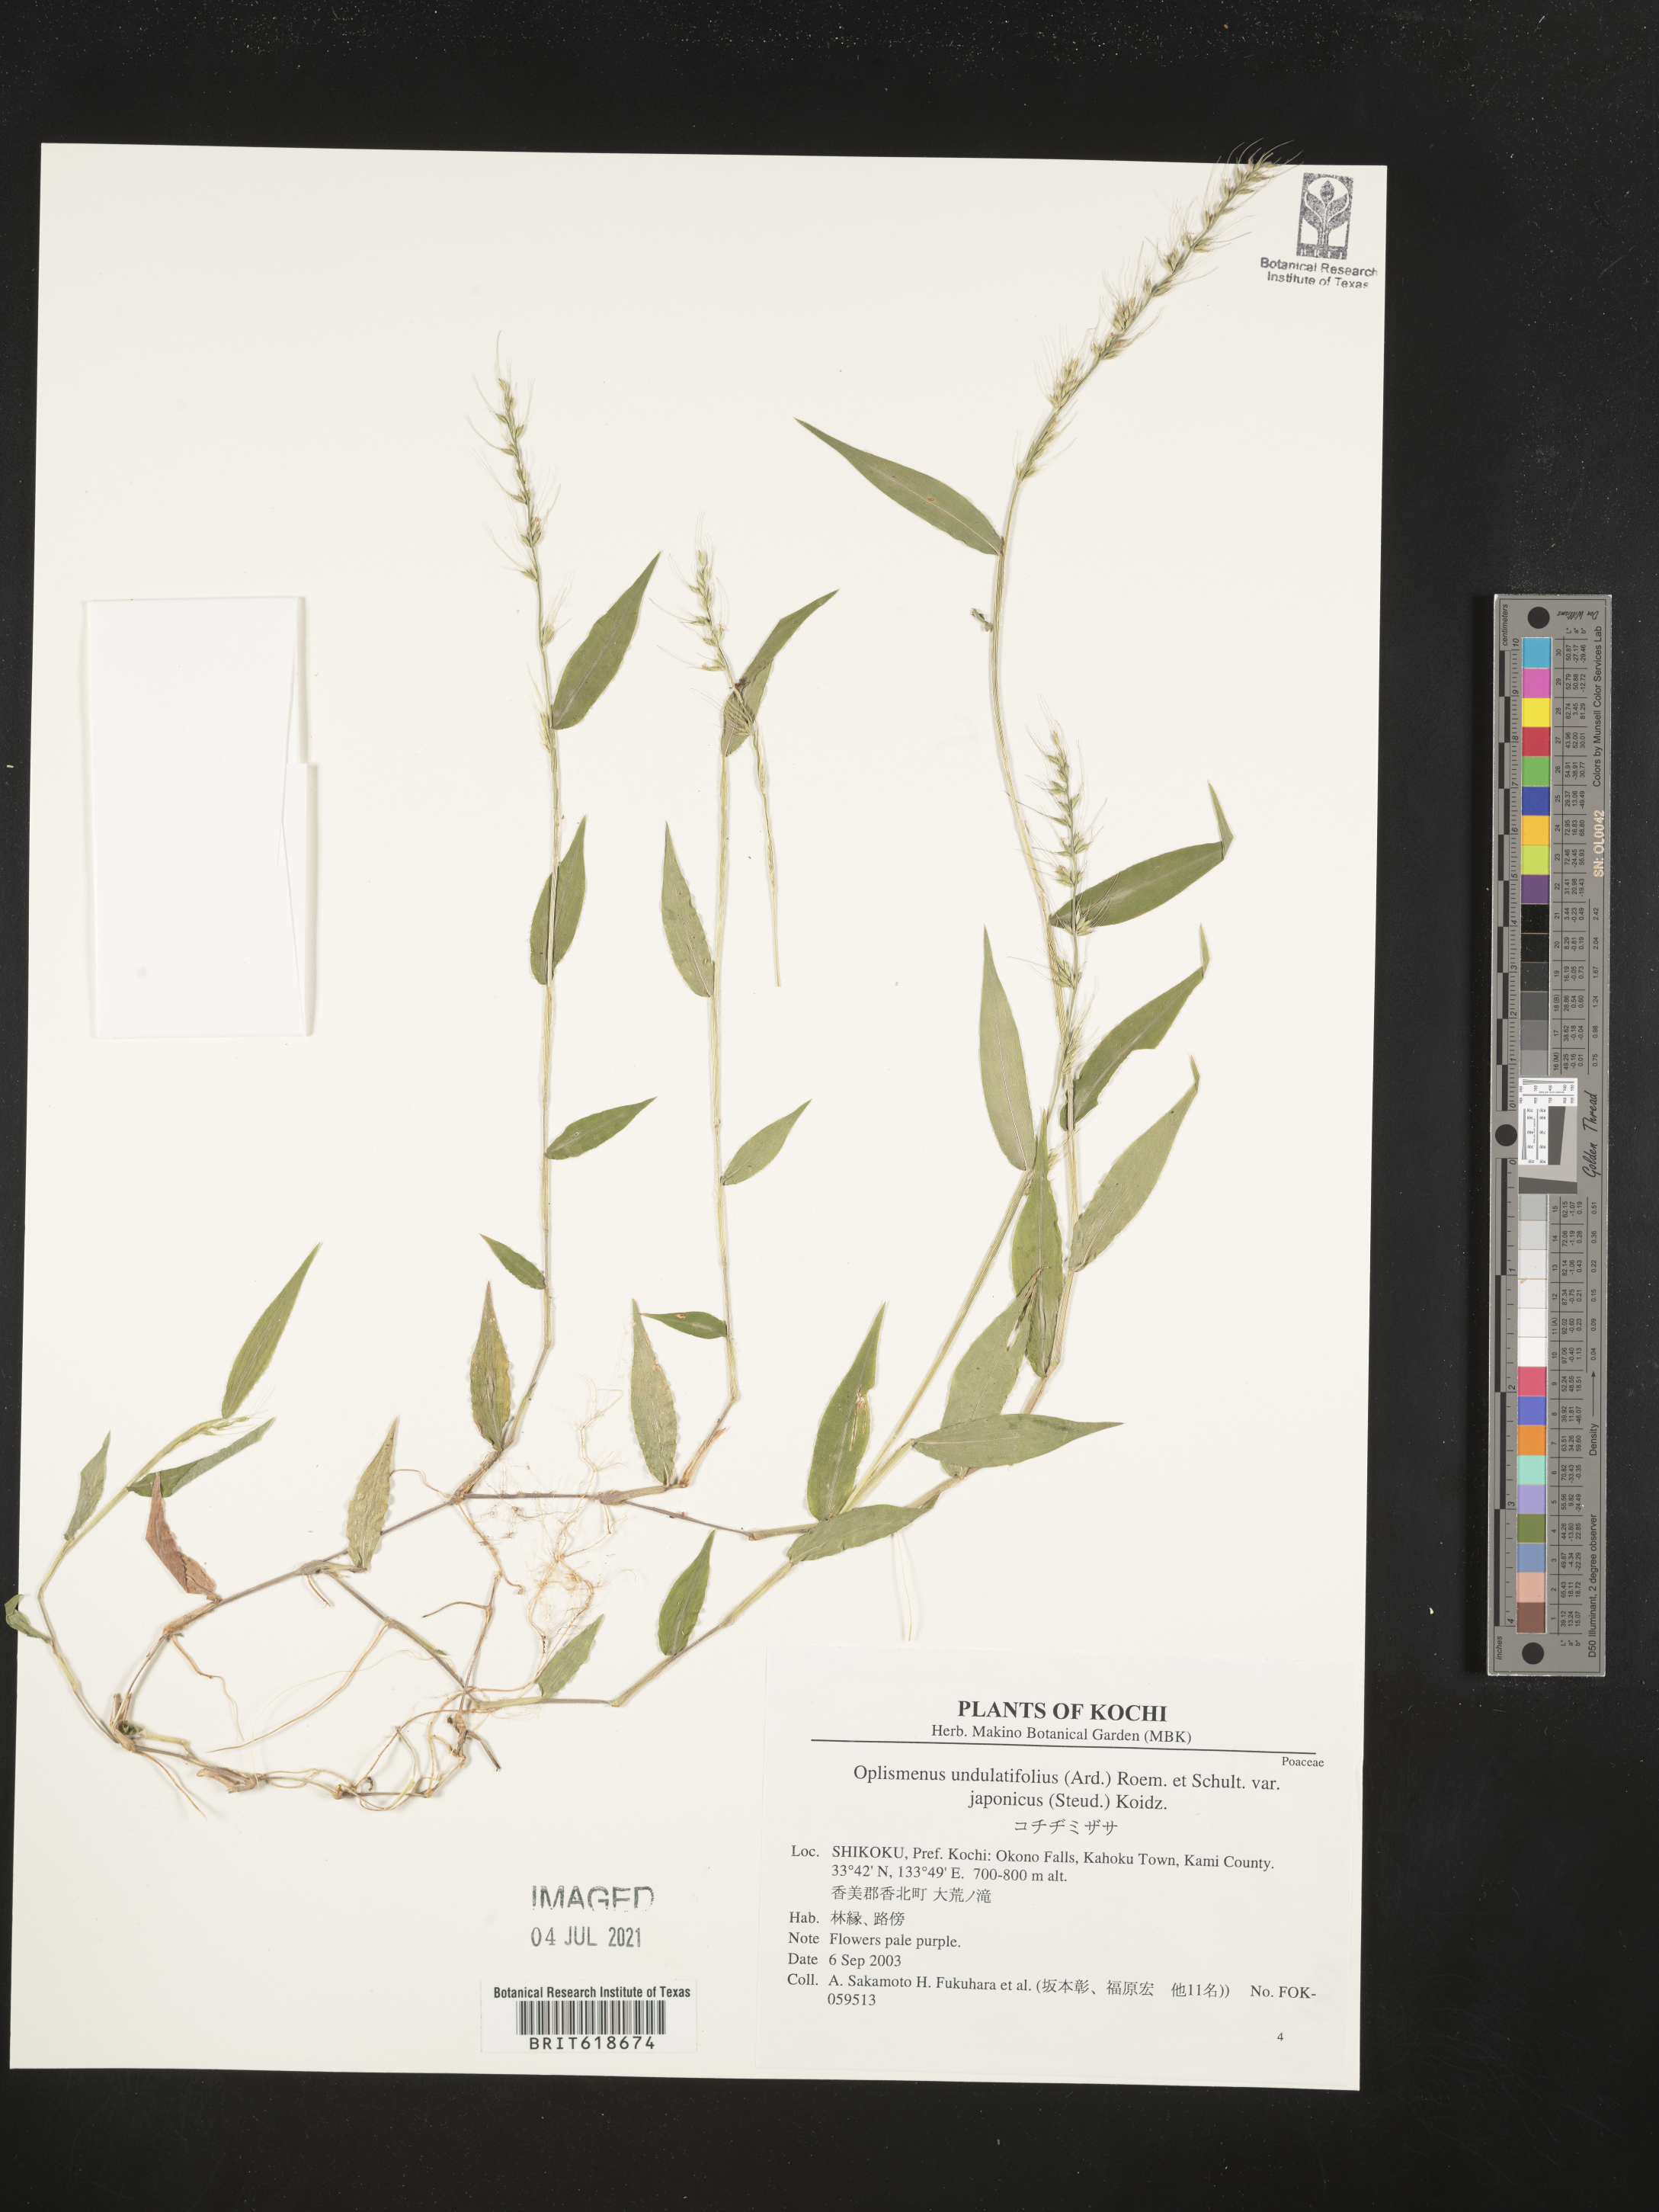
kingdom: Plantae
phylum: Tracheophyta
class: Liliopsida
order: Poales
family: Poaceae
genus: Oplismenus
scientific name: Oplismenus burmanni
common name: Burmann's basketgrass
